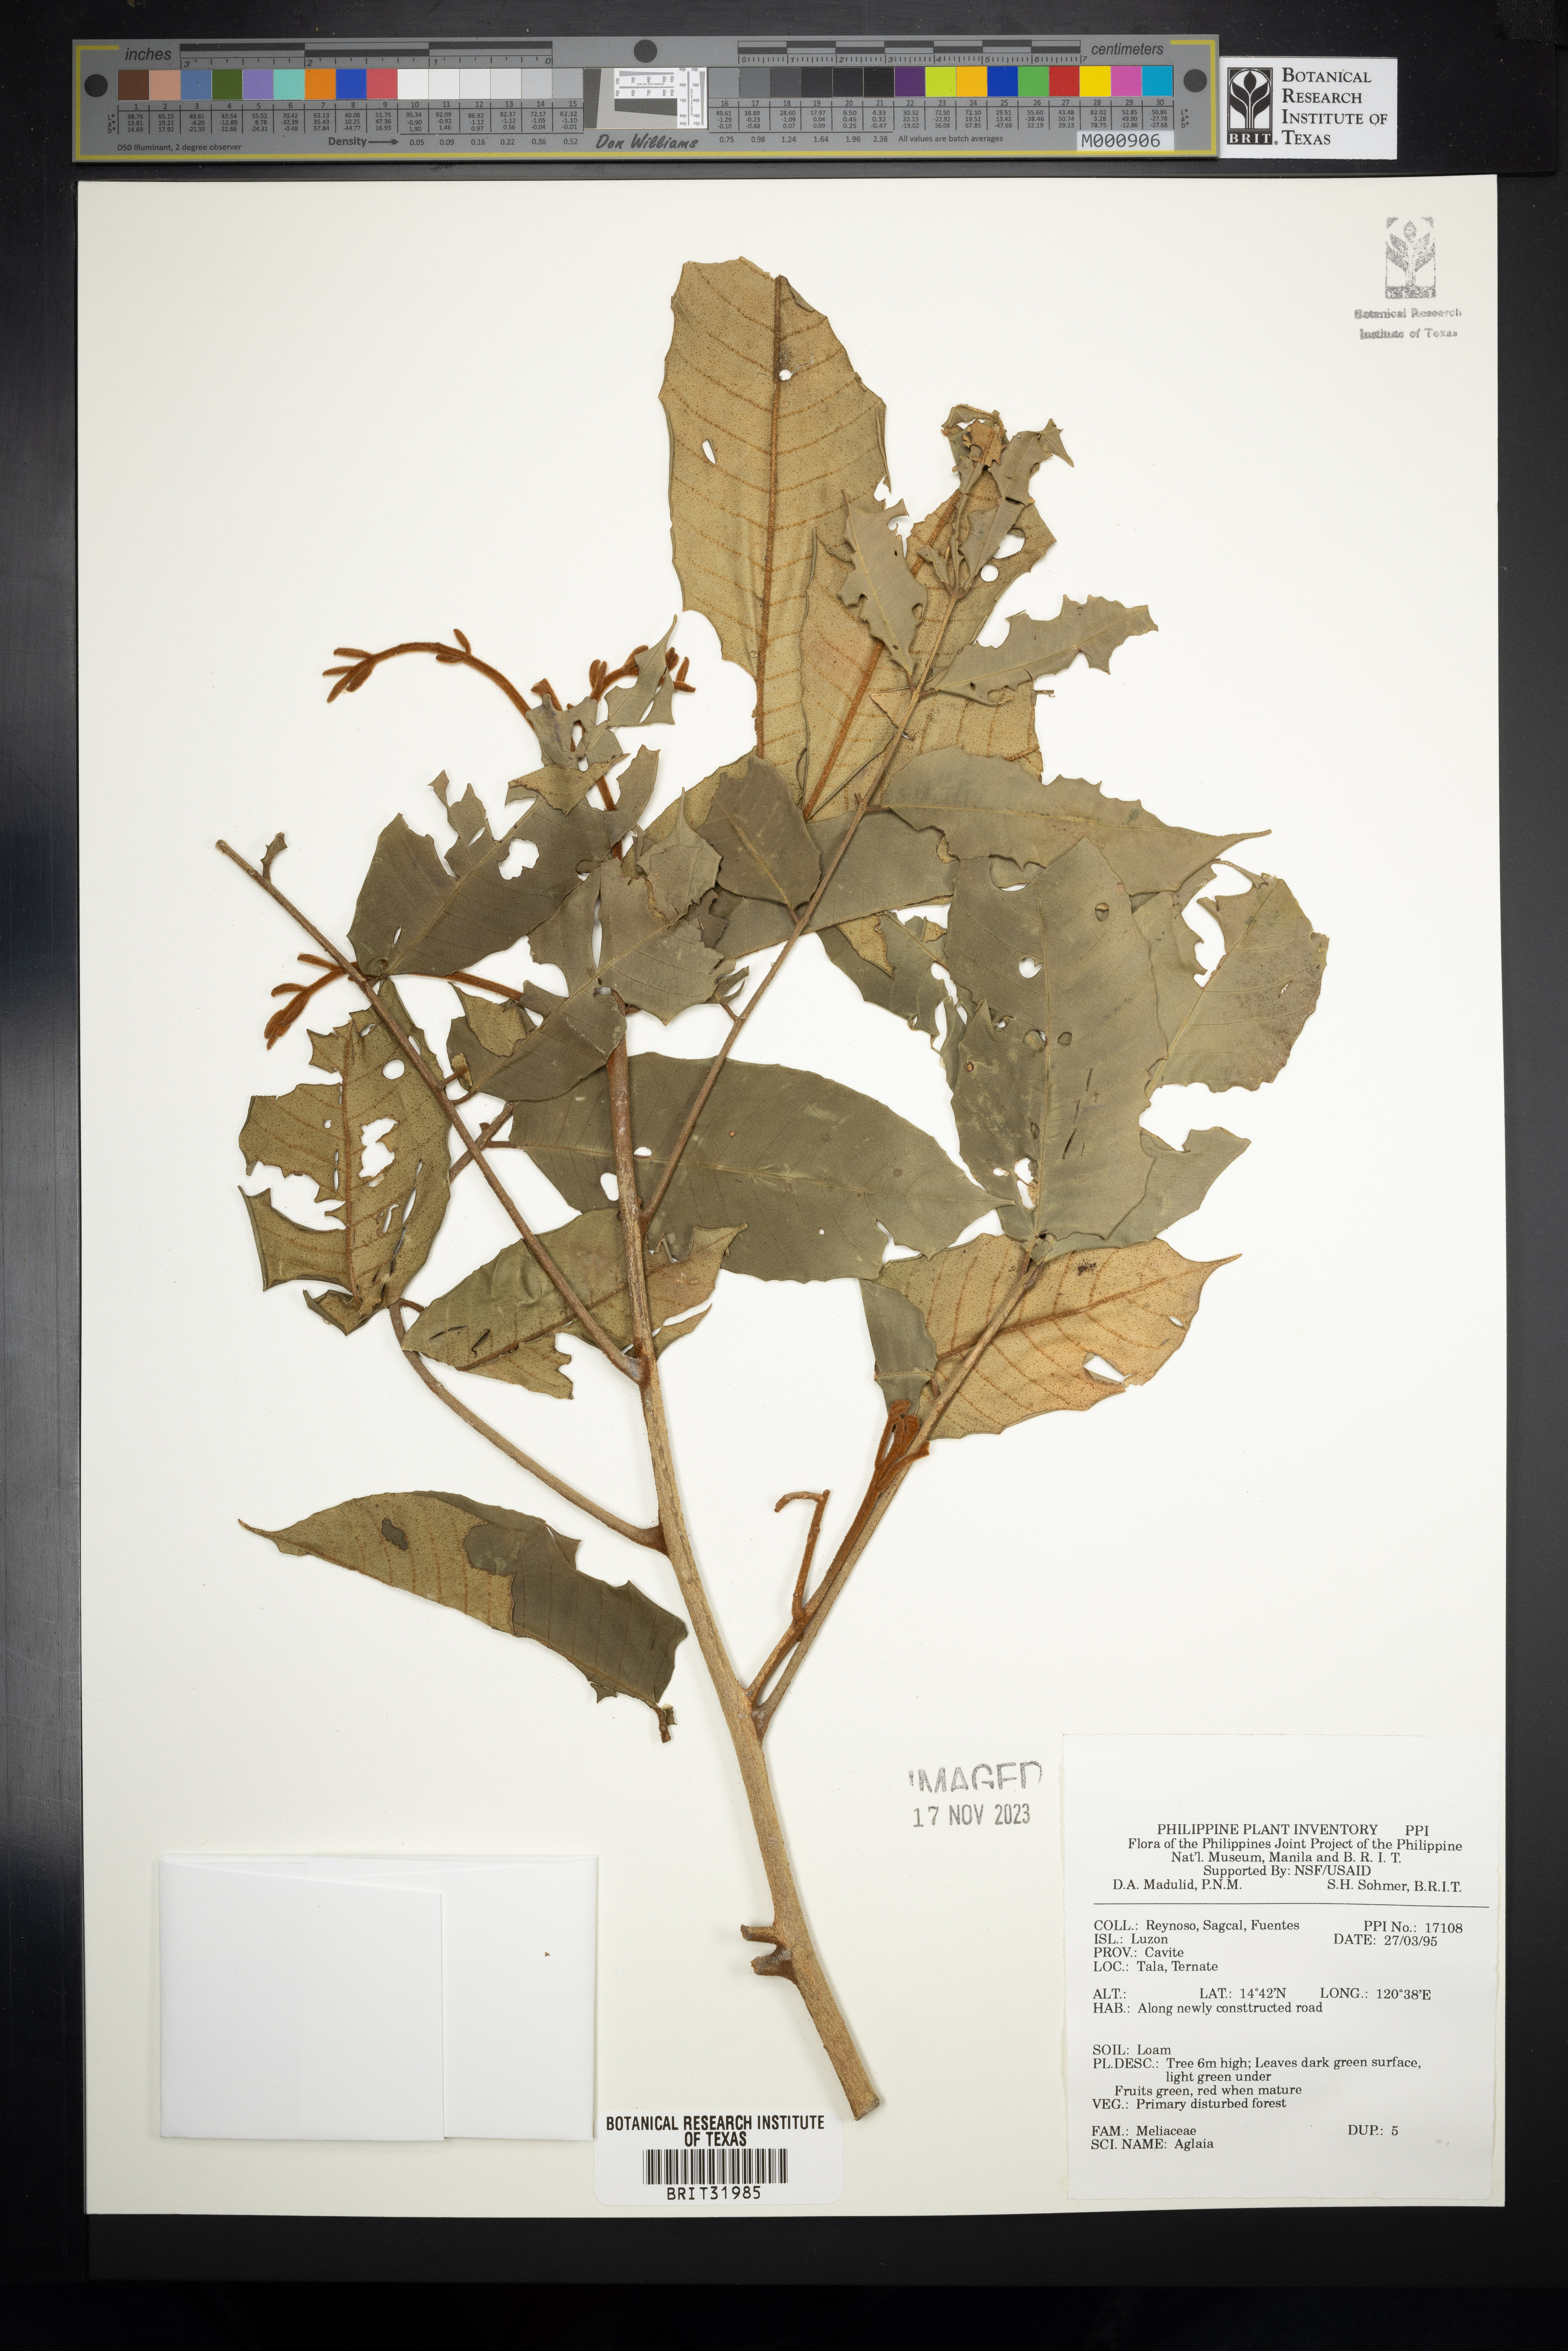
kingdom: Plantae
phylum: Tracheophyta
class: Magnoliopsida
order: Sapindales
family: Meliaceae
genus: Aglaia
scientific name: Aglaia
